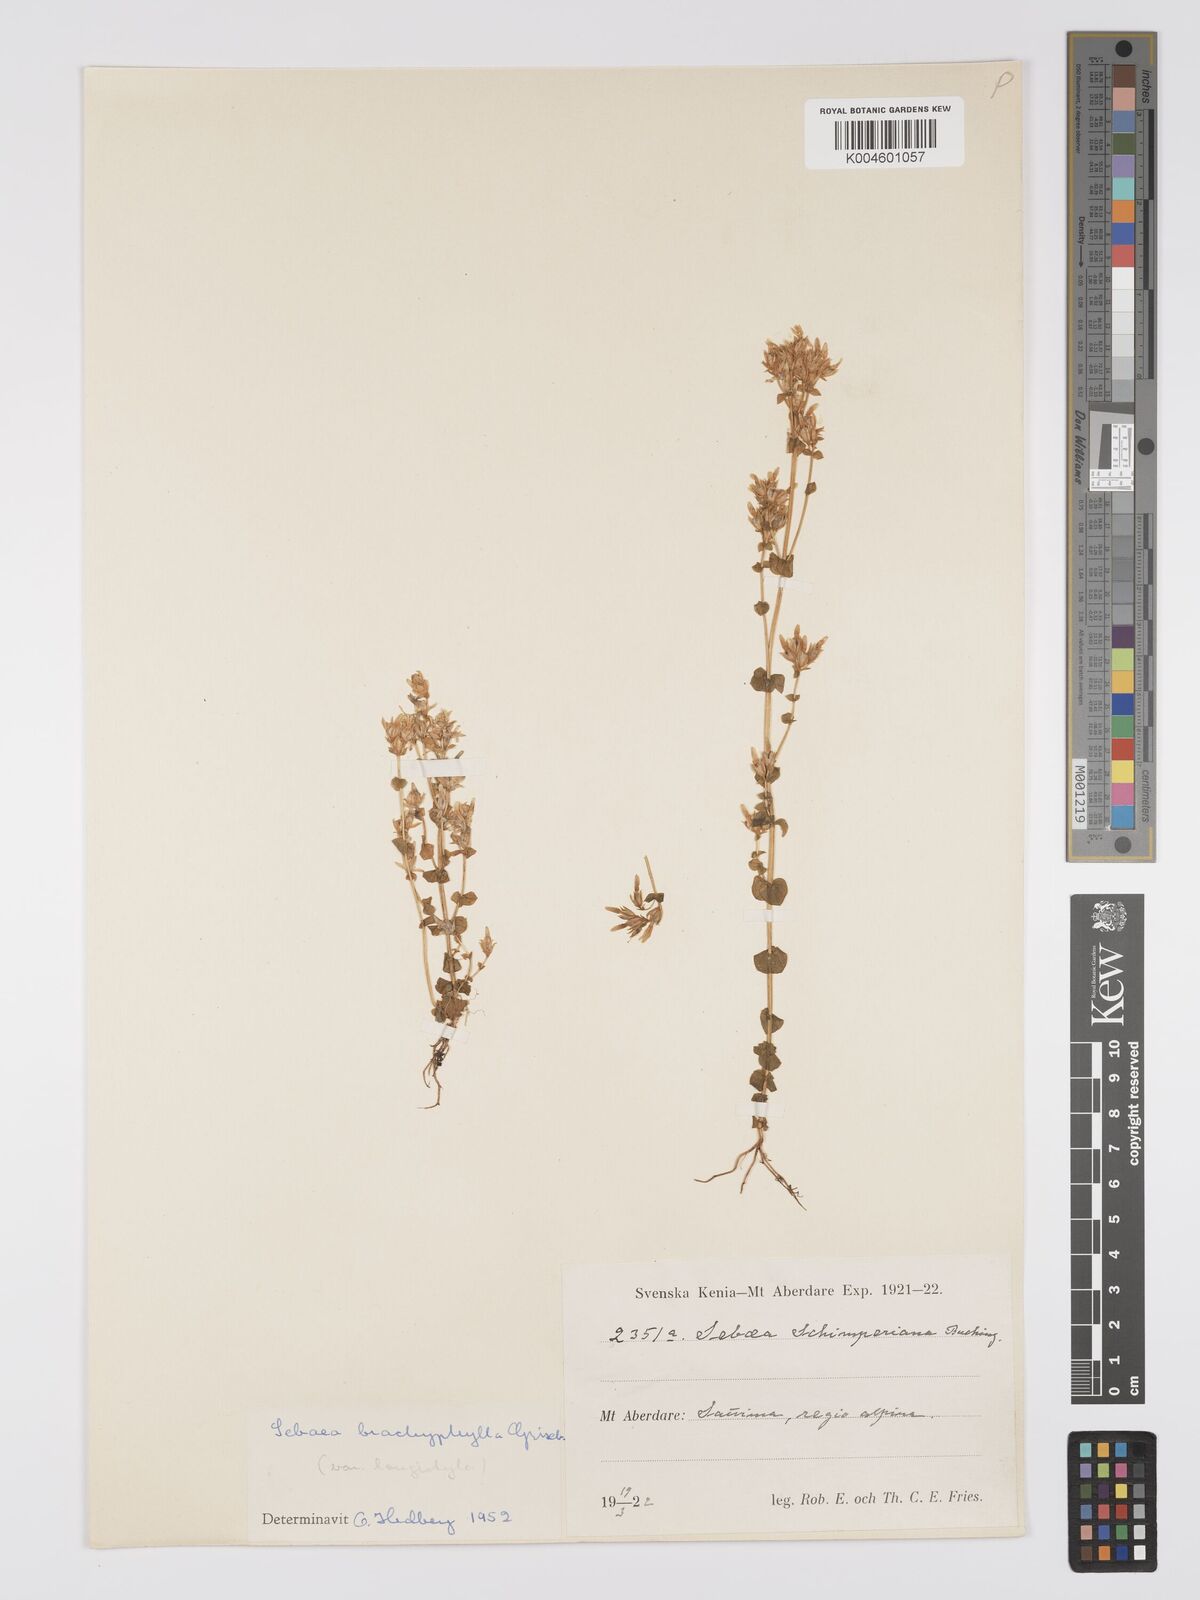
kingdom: Plantae
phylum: Tracheophyta
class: Magnoliopsida
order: Gentianales
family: Gentianaceae
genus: Sebaea
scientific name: Sebaea brachyphylla
